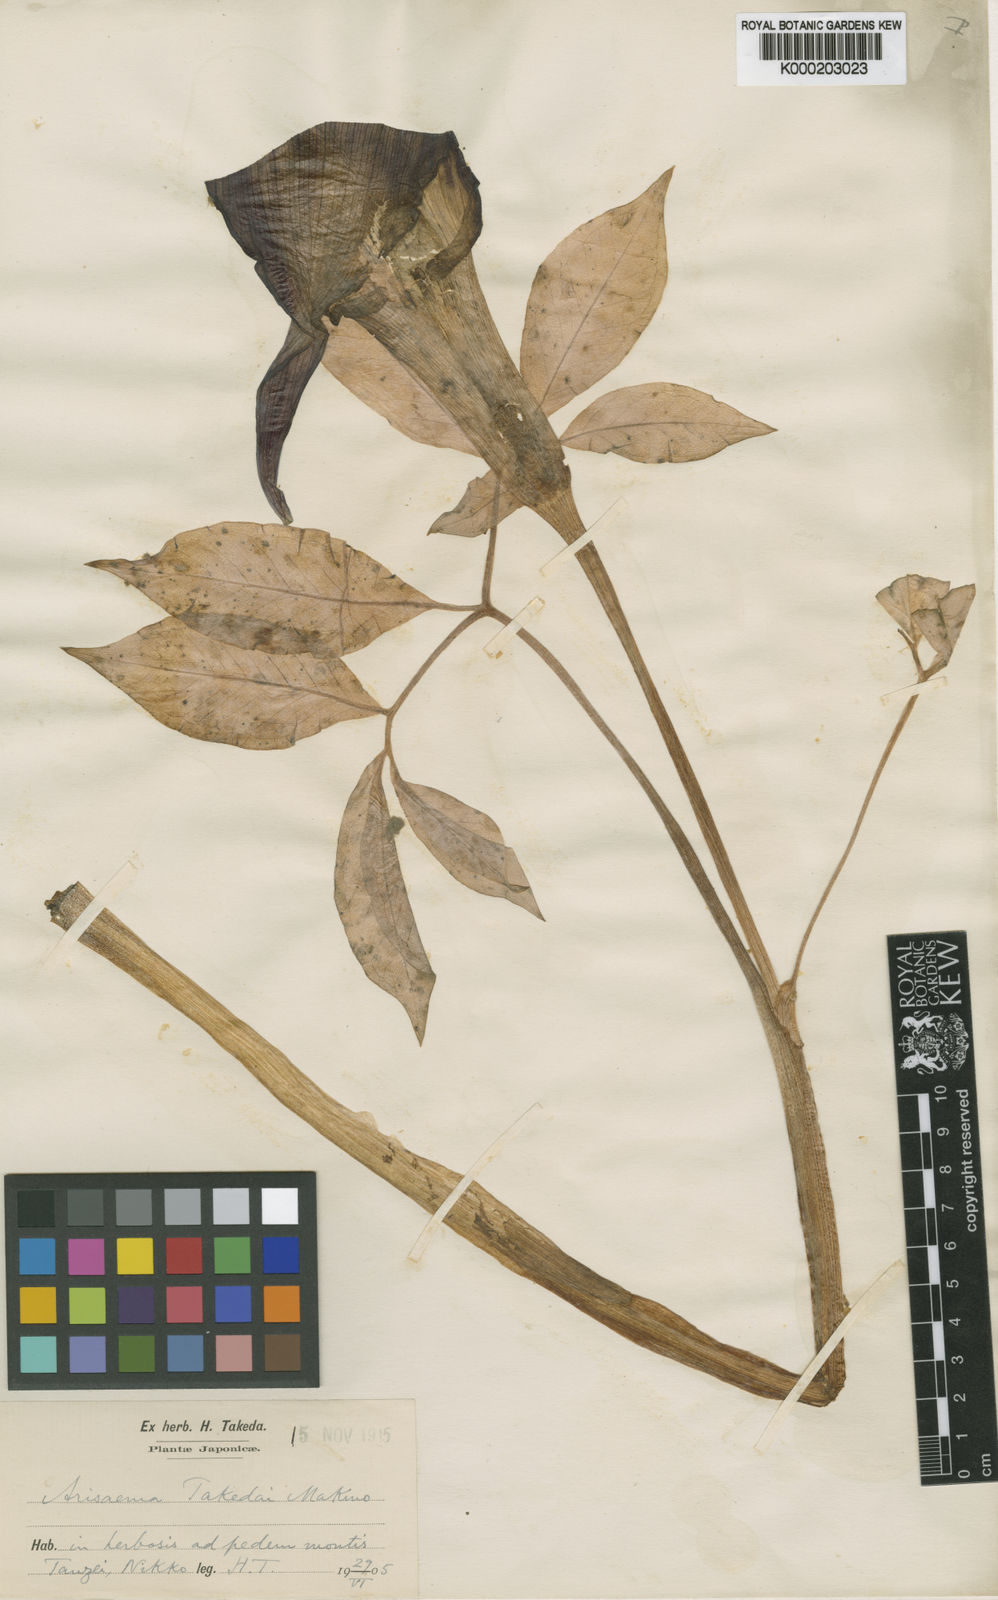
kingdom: Plantae
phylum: Tracheophyta
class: Liliopsida
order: Alismatales
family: Araceae
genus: Arisaema
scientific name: Arisaema
